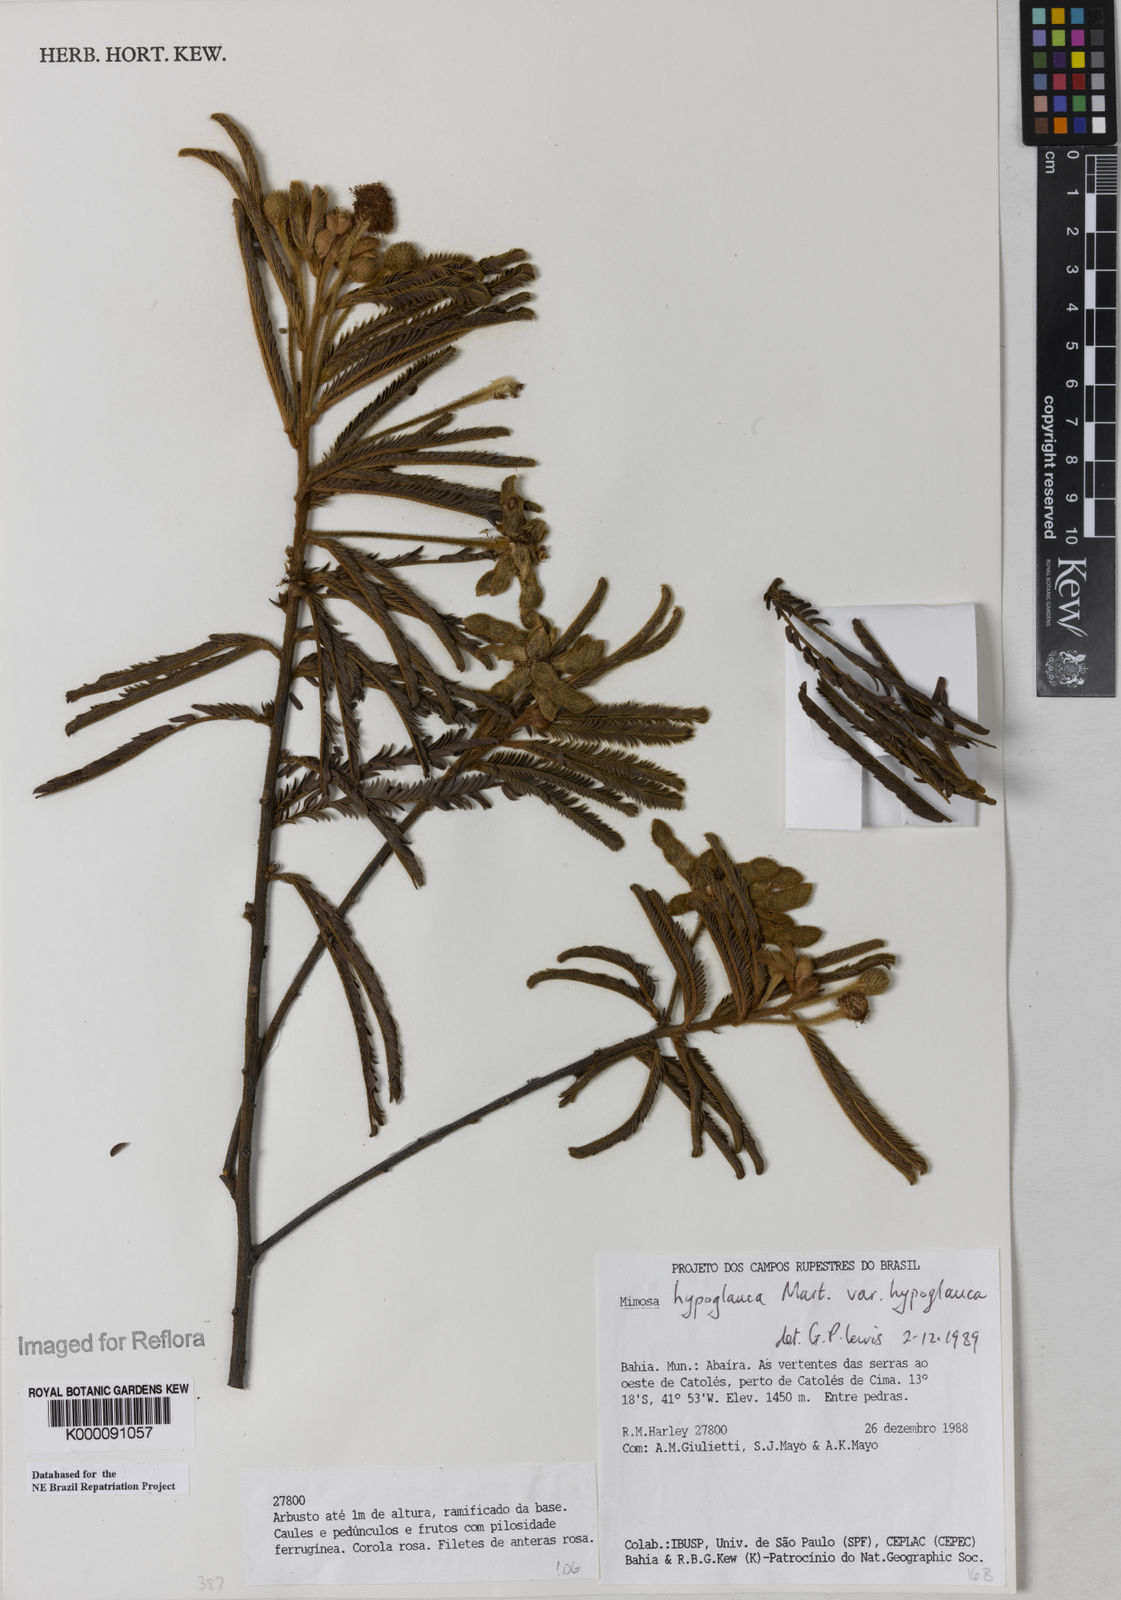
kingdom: Plantae
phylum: Tracheophyta
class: Magnoliopsida
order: Fabales
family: Fabaceae
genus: Mimosa
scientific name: Mimosa hypoglauca
